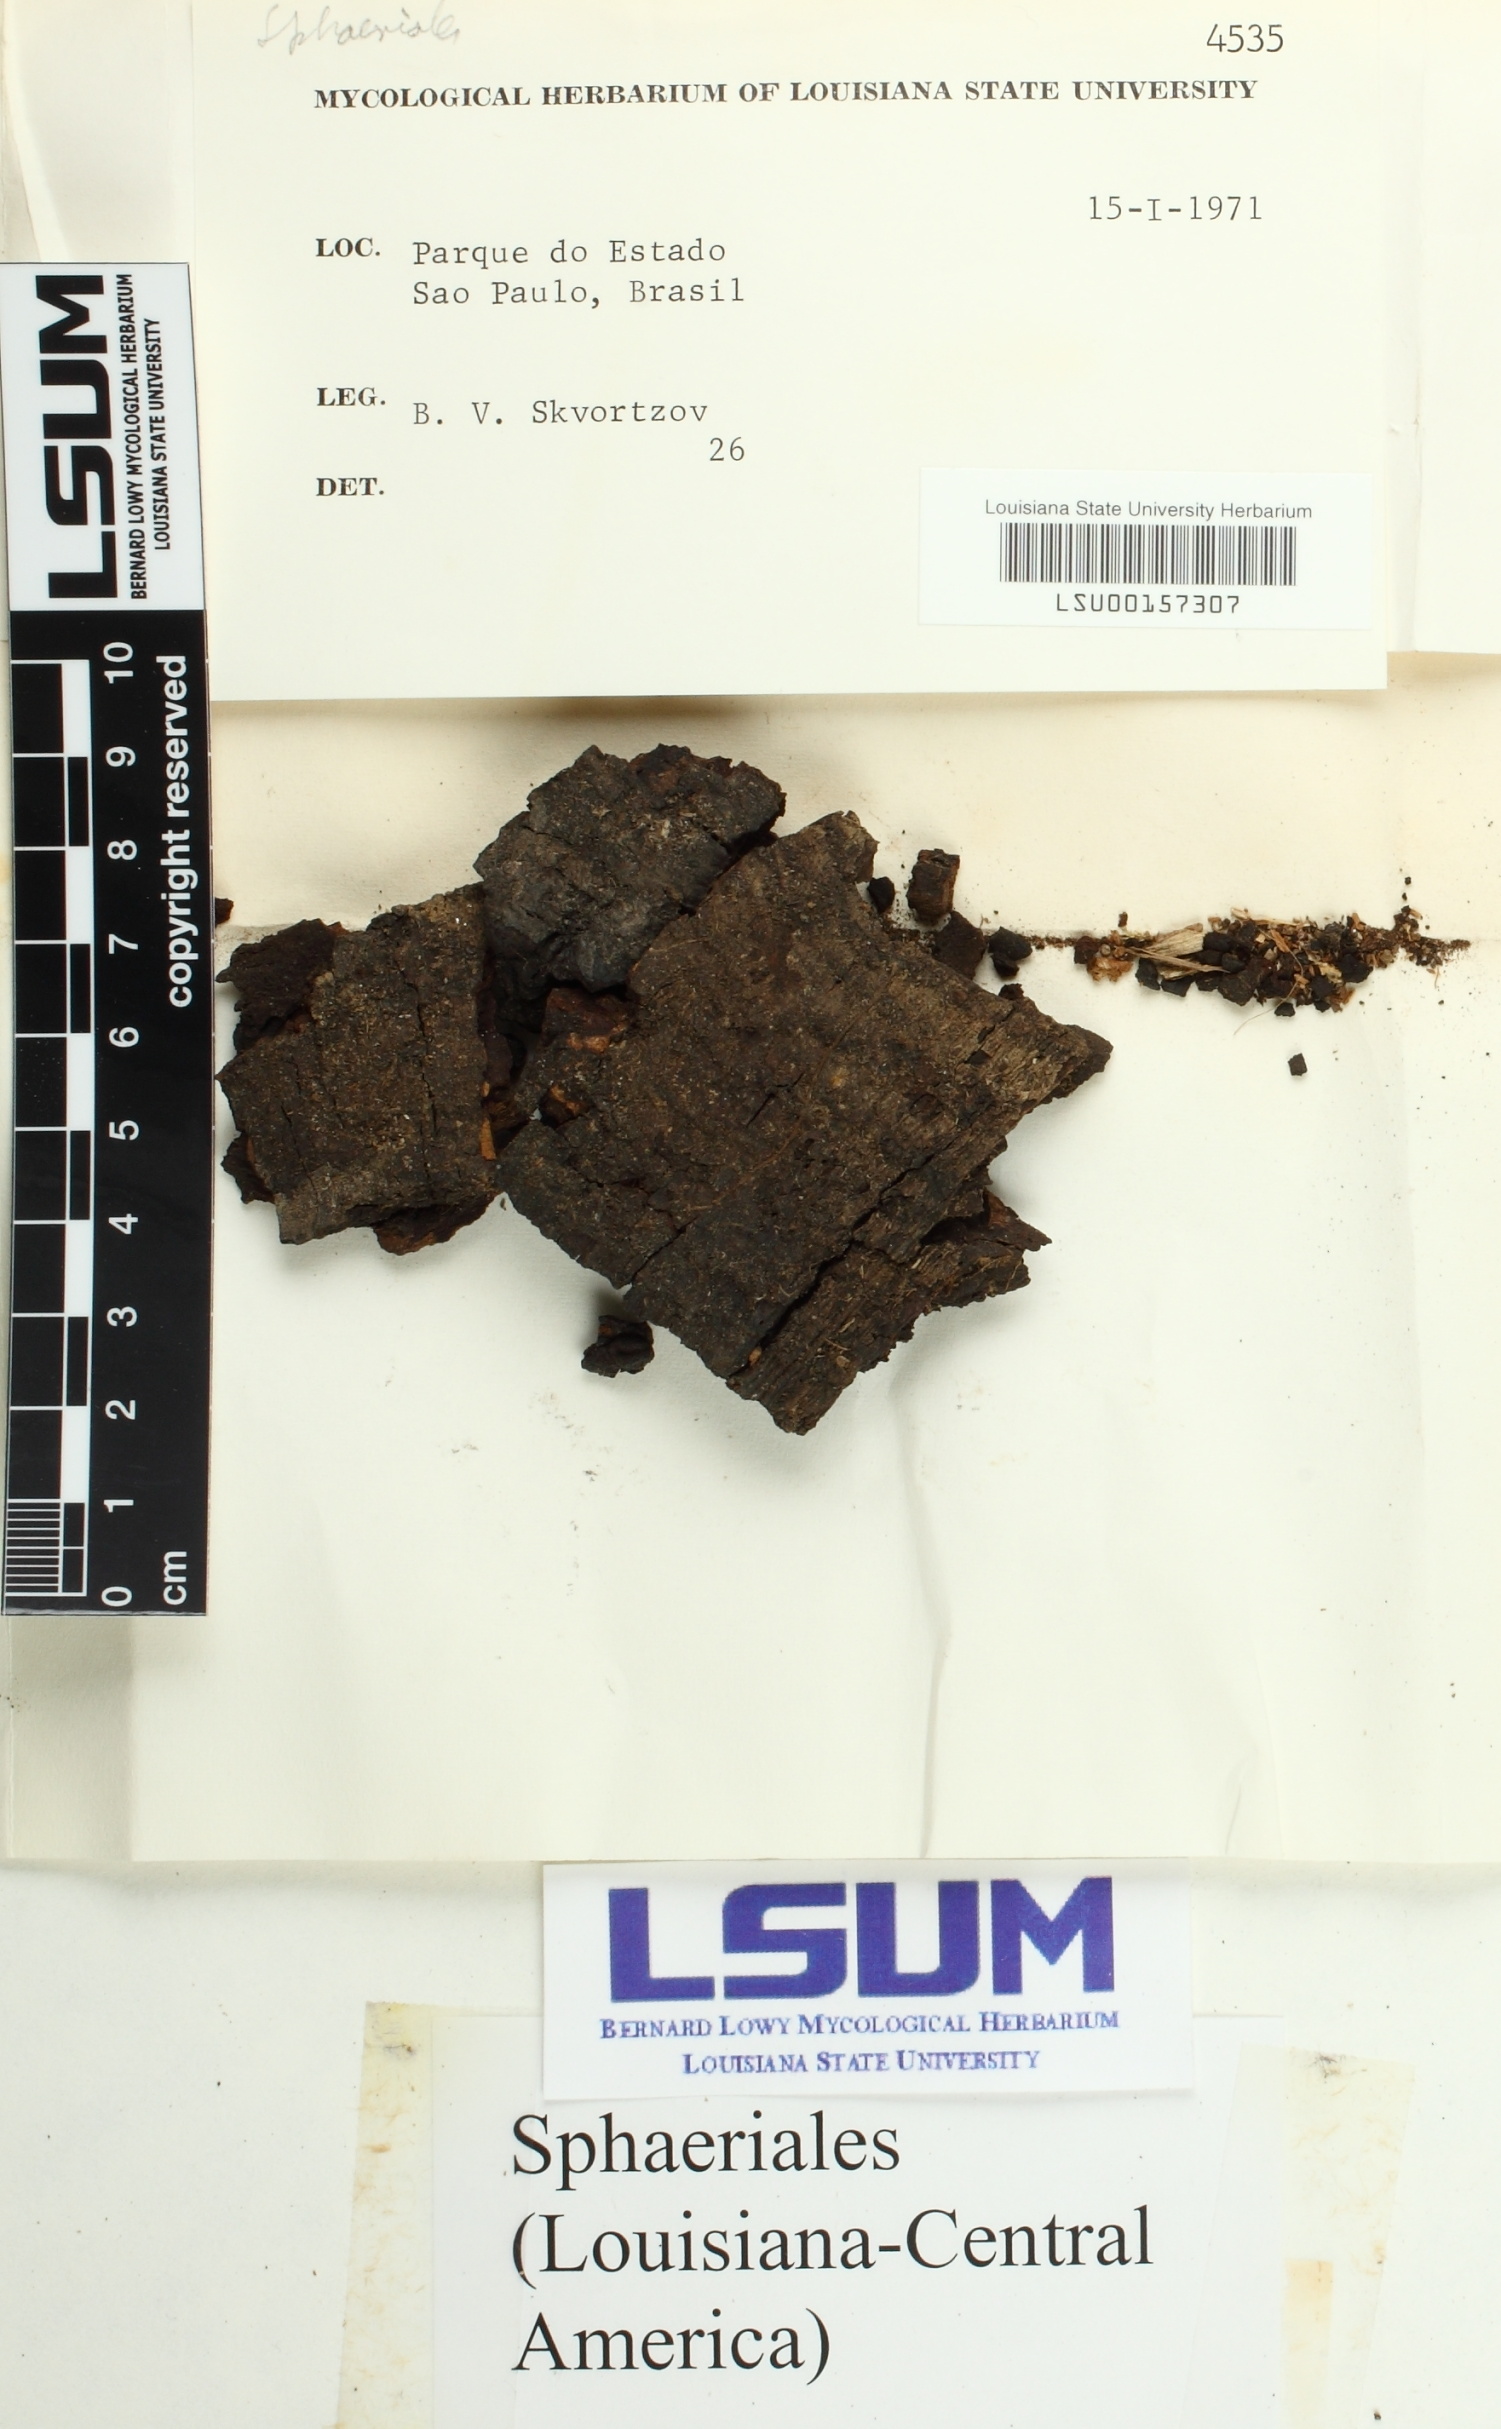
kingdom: Fungi
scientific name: Fungi
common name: Fungi
